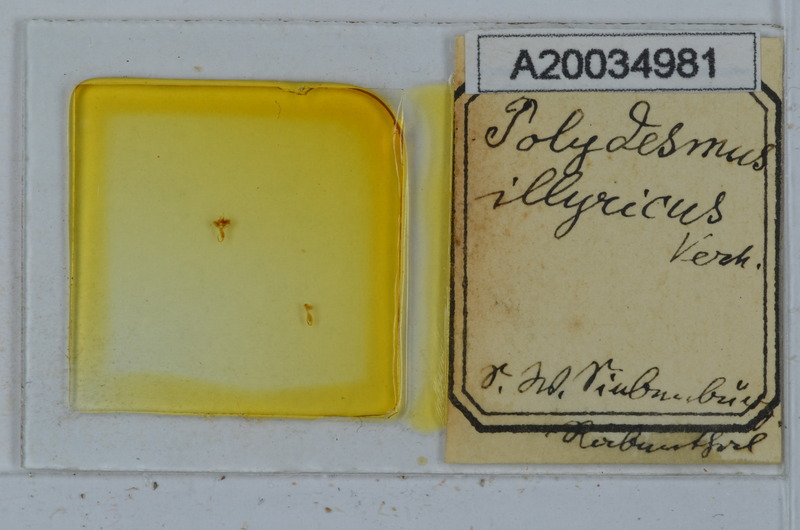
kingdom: Animalia
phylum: Arthropoda
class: Diplopoda
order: Polydesmida
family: Polydesmidae
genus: Polydesmus
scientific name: Polydesmus complanatus
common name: Flat-backed millipede
